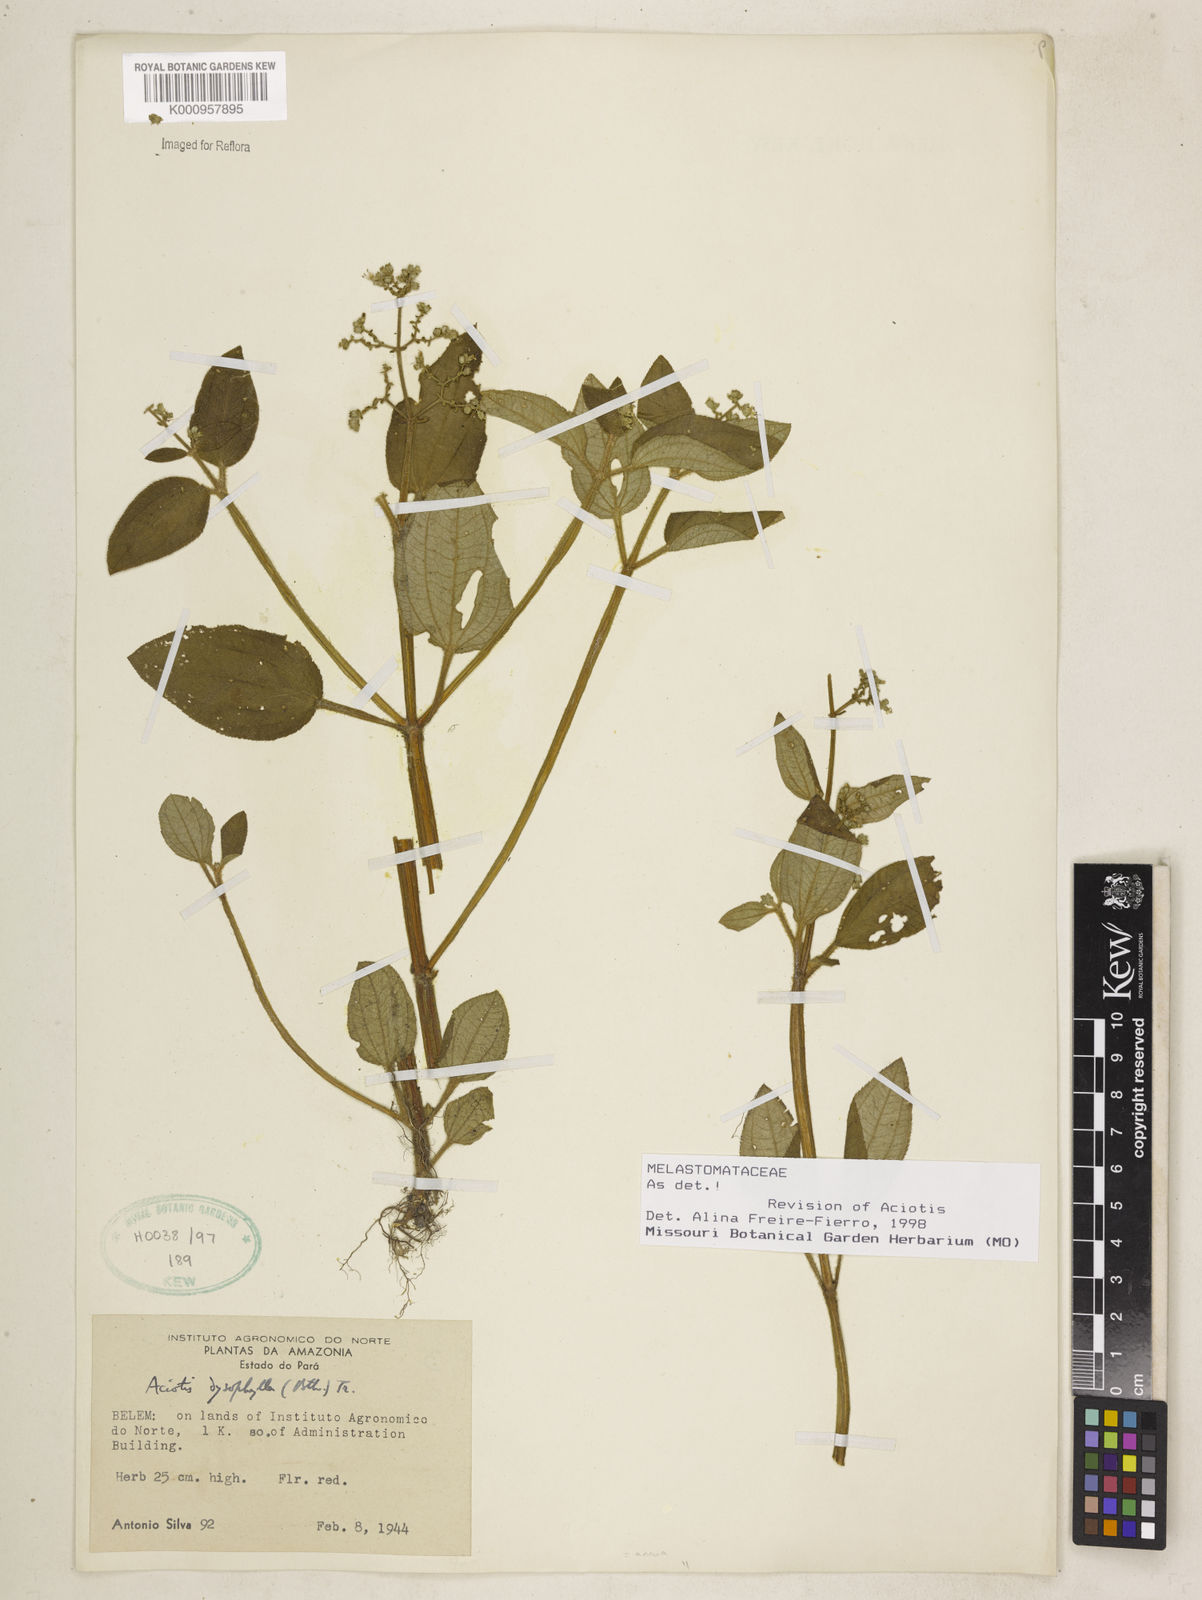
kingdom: Plantae
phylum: Tracheophyta
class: Magnoliopsida
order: Myrtales
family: Melastomataceae
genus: Aciotis
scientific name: Aciotis annua
